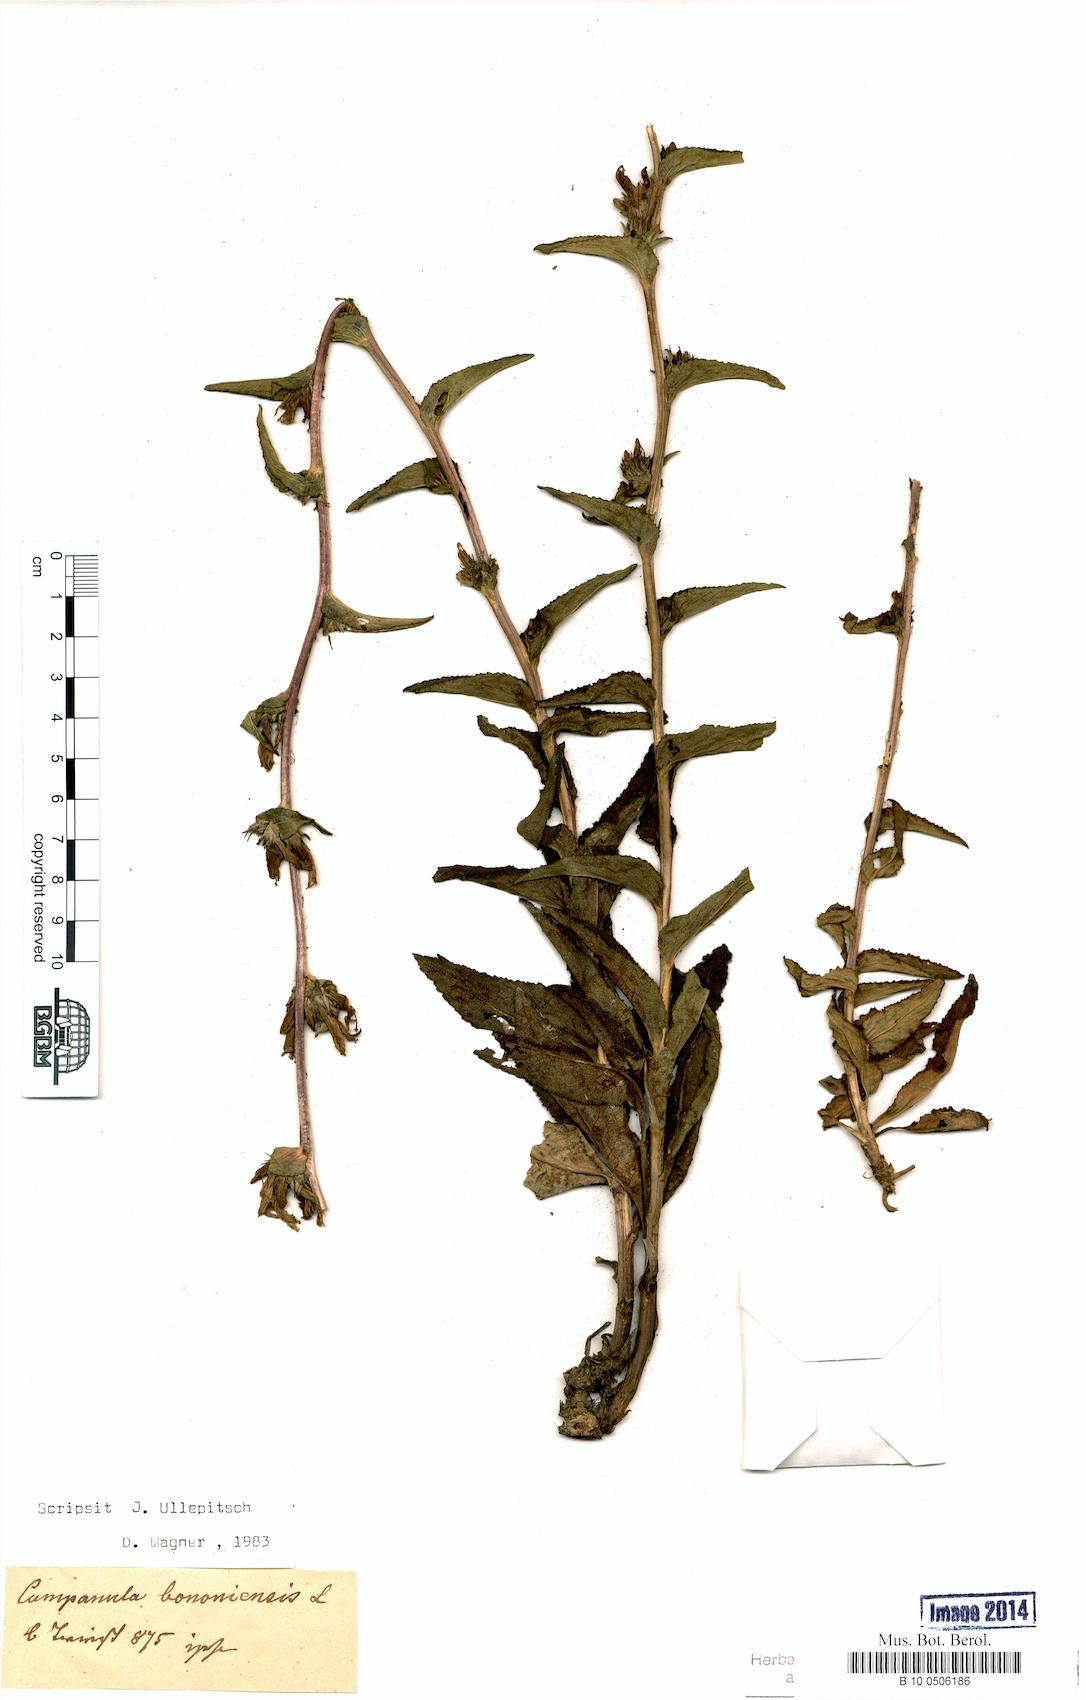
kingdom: Plantae
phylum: Tracheophyta
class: Magnoliopsida
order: Asterales
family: Campanulaceae
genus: Campanula
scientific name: Campanula bononiensis
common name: Pale bellflower
